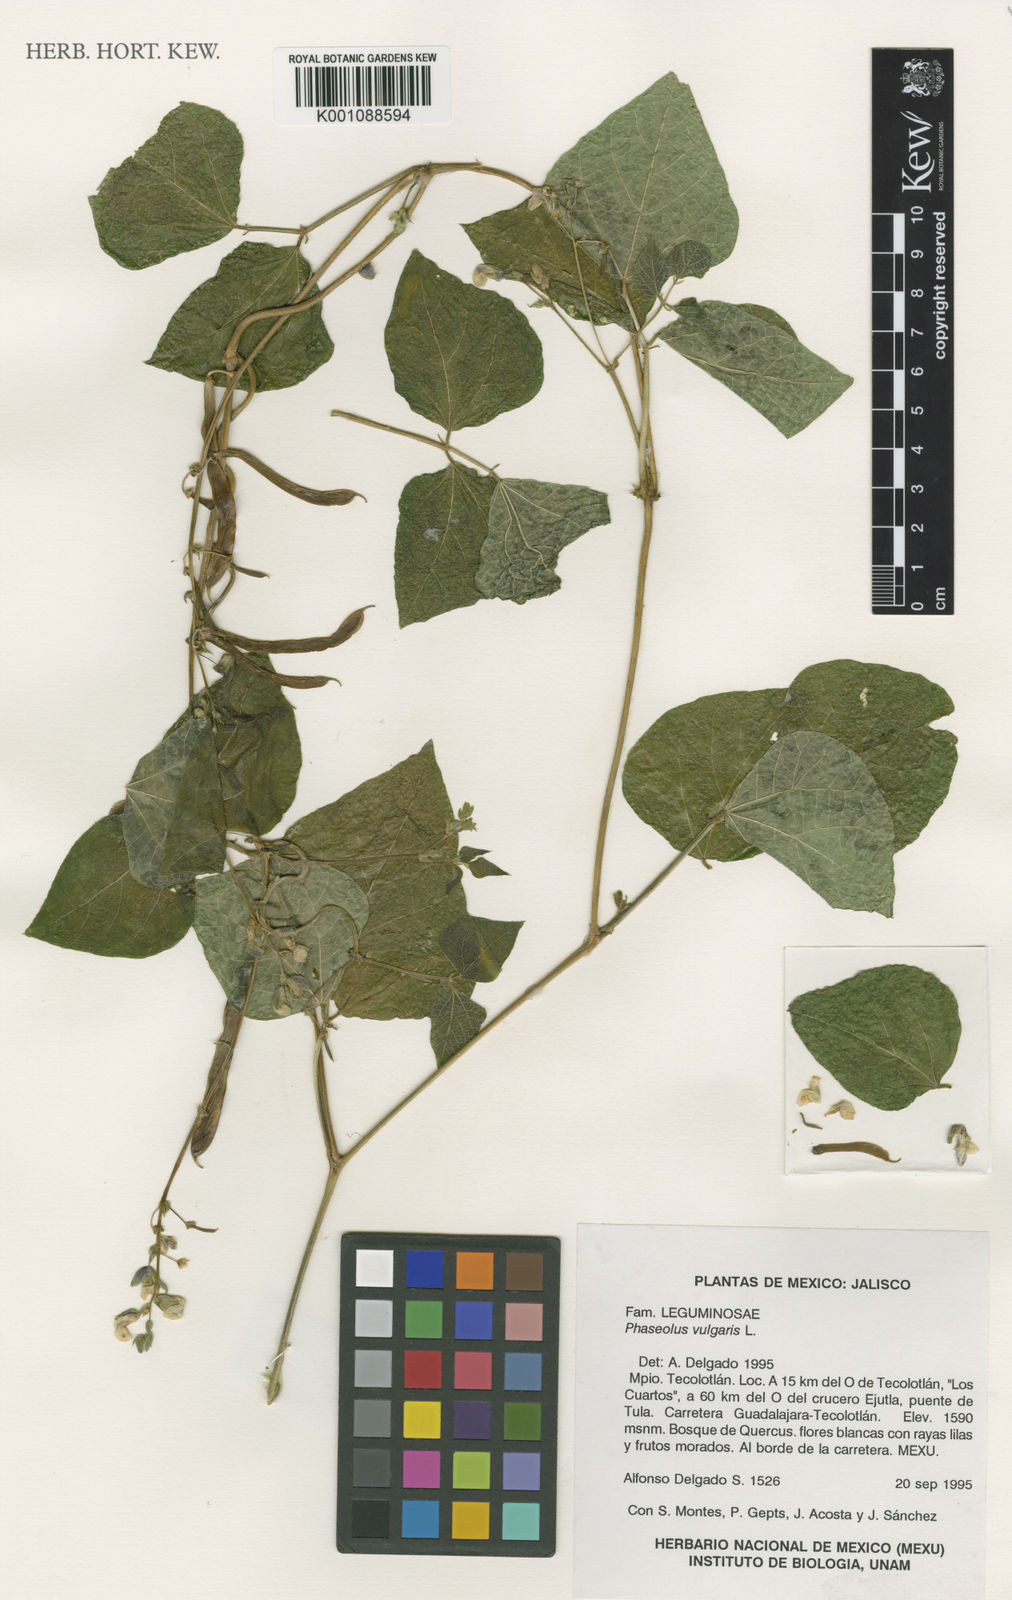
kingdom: Plantae
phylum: Tracheophyta
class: Magnoliopsida
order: Fabales
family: Fabaceae
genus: Phaseolus
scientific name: Phaseolus vulgaris
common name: Bean
